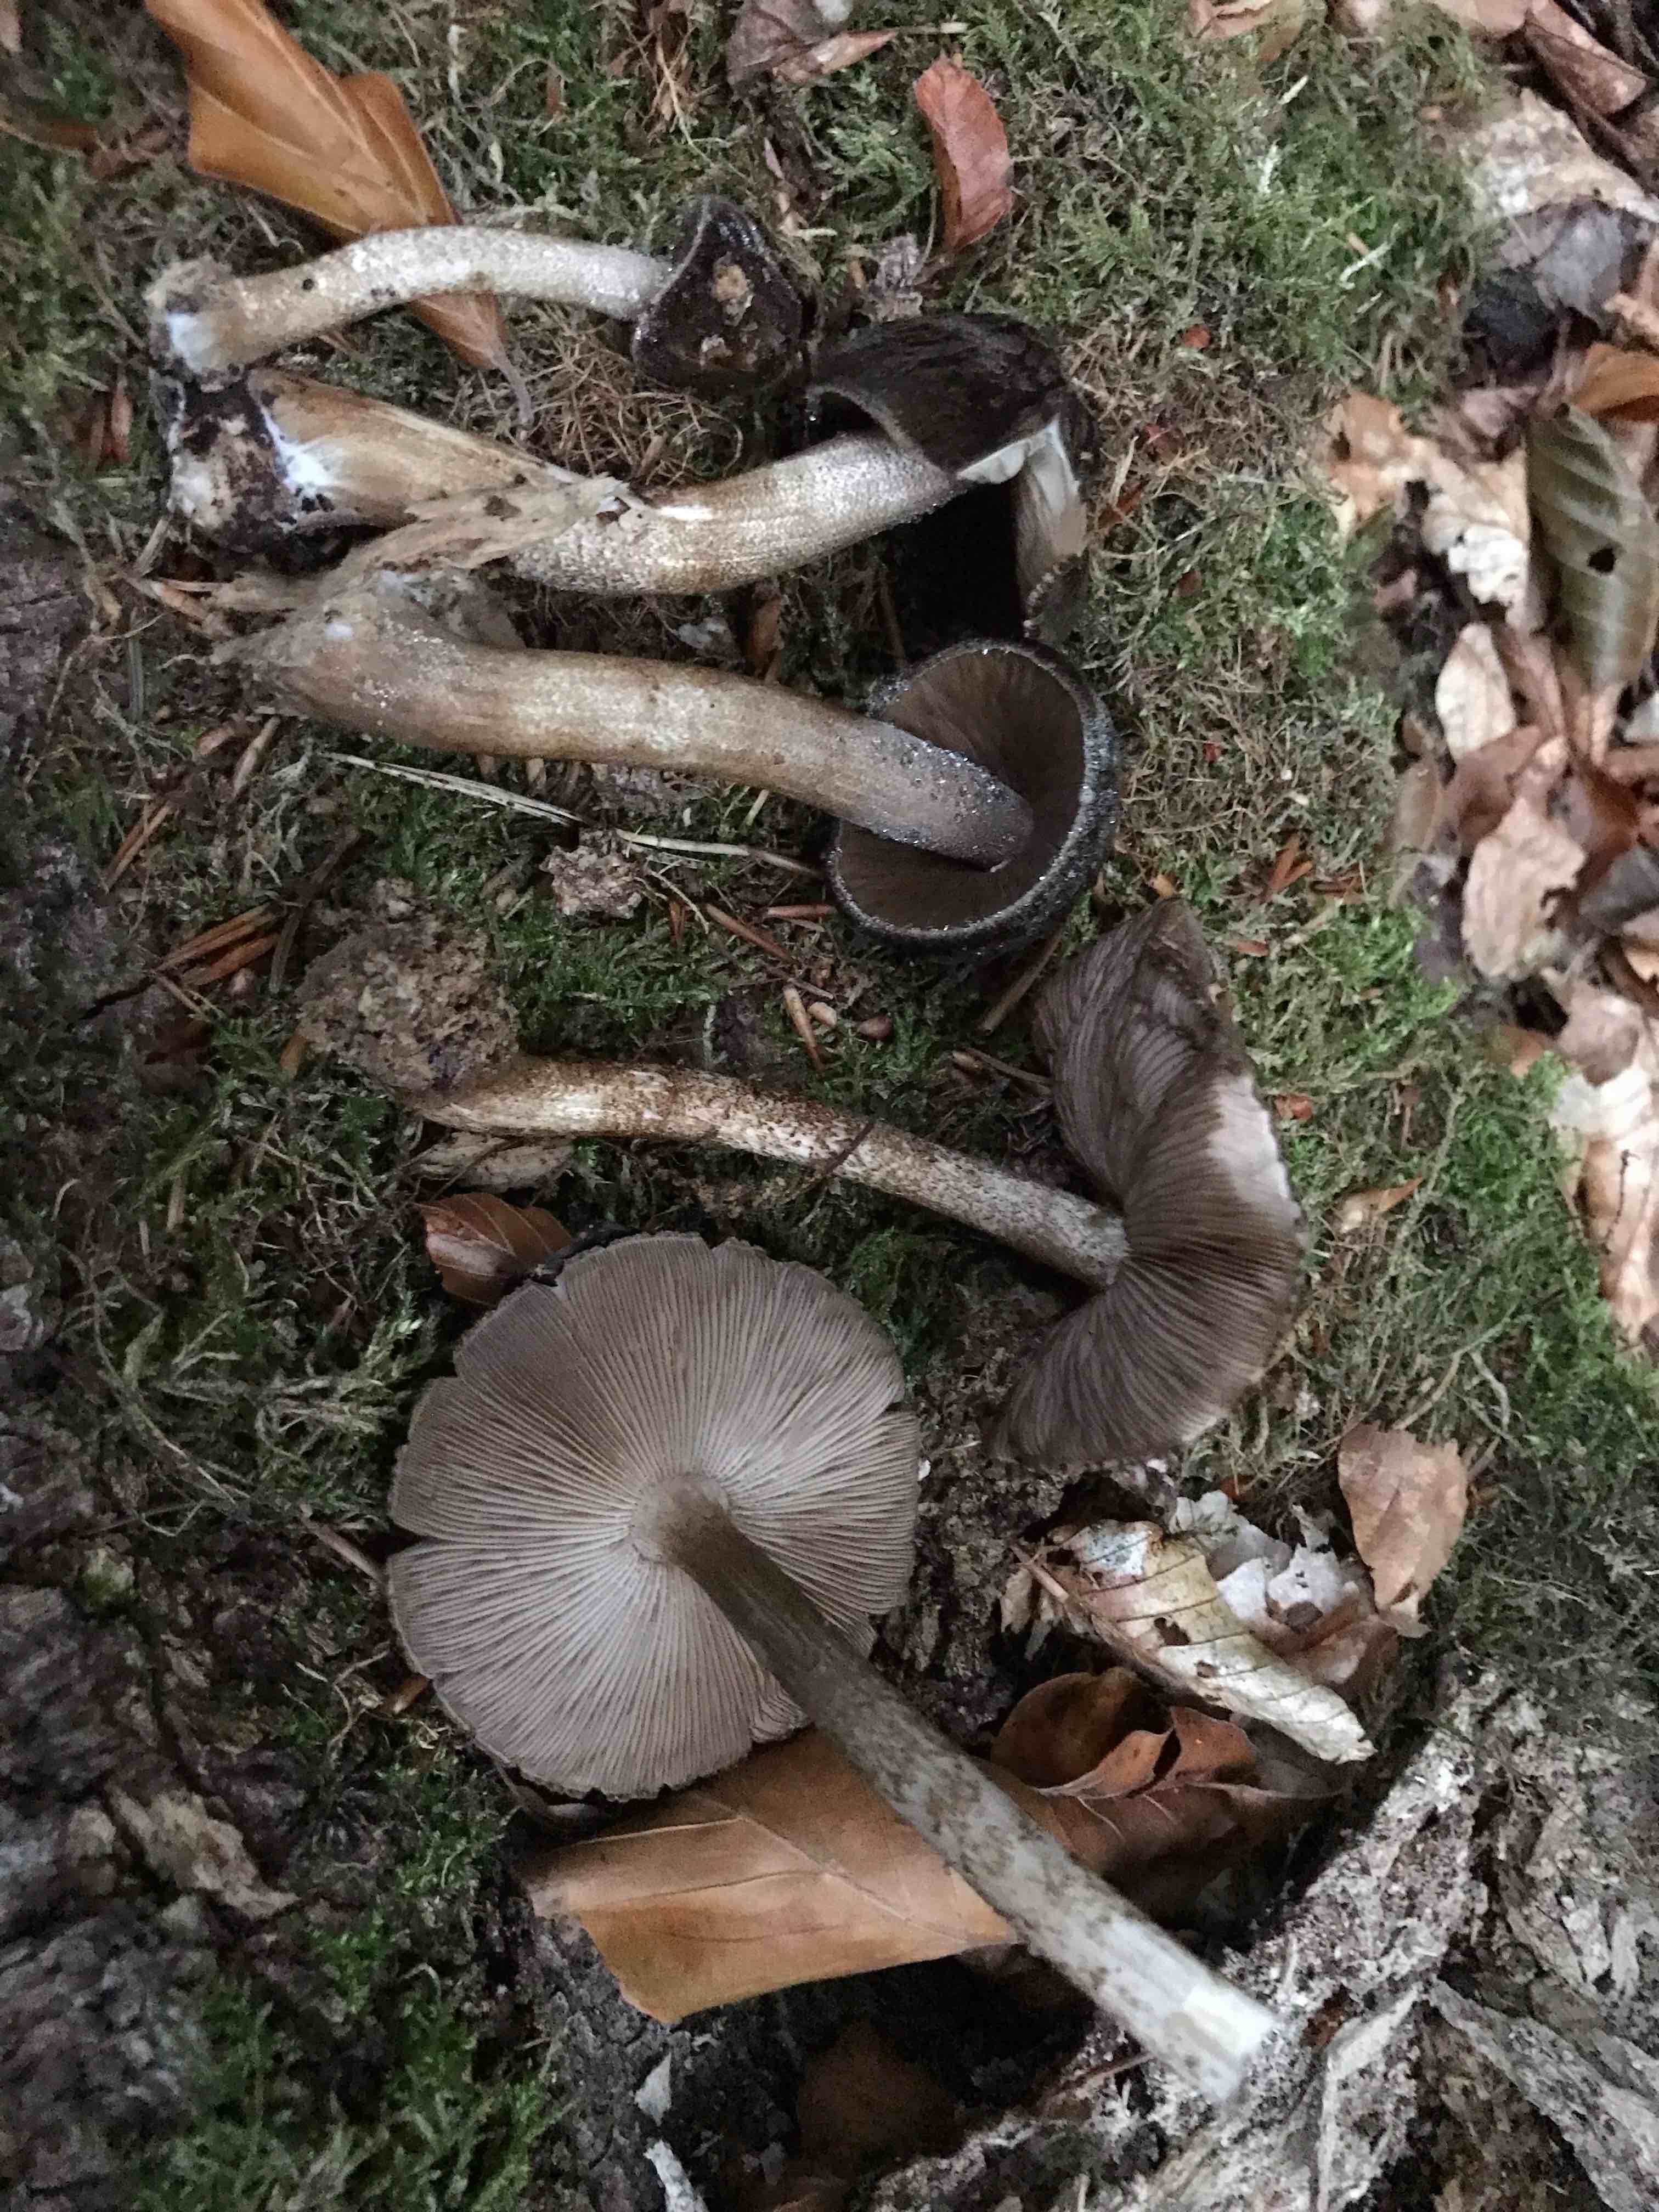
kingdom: Fungi
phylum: Basidiomycota
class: Agaricomycetes
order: Agaricales
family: Pluteaceae
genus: Pluteus
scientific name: Pluteus umbrosus
